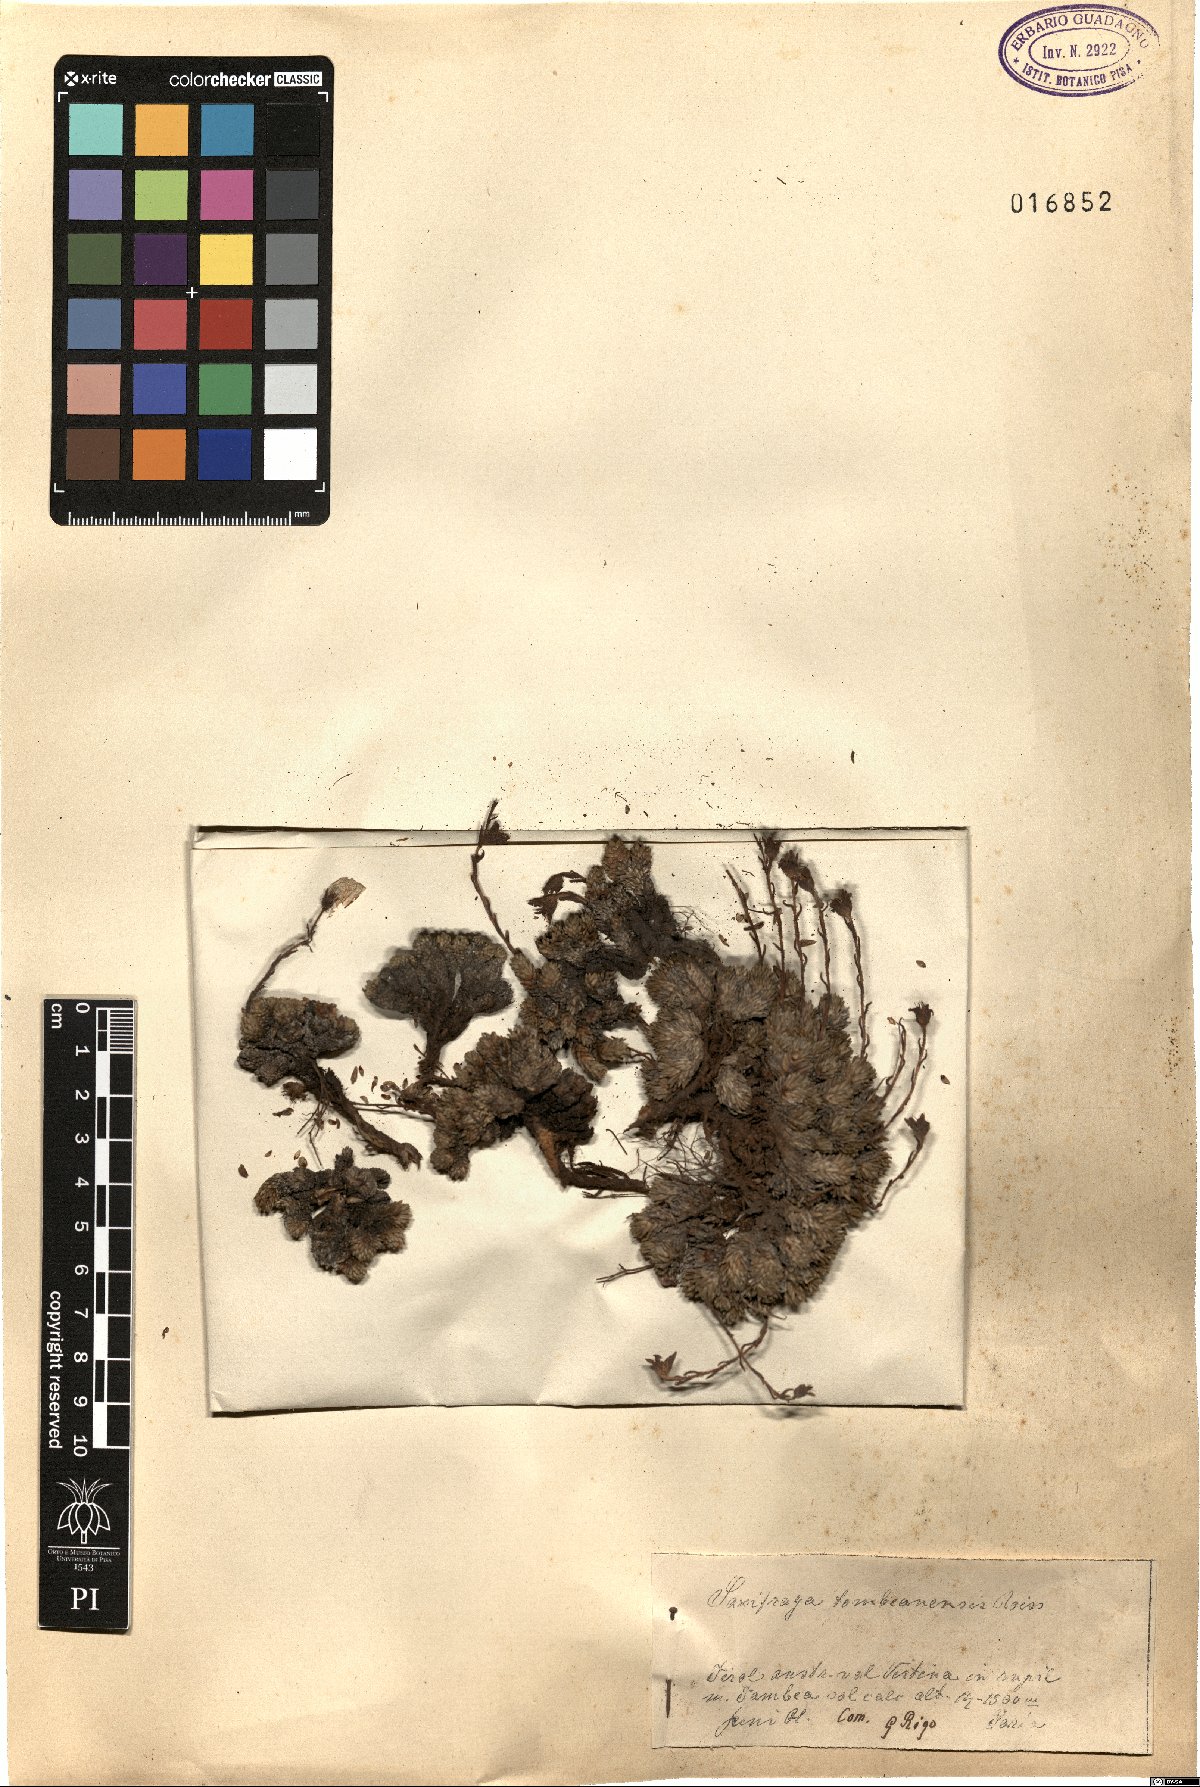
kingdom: Plantae
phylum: Tracheophyta
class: Magnoliopsida
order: Saxifragales
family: Saxifragaceae
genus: Saxifraga
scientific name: Saxifraga tombeanensis
